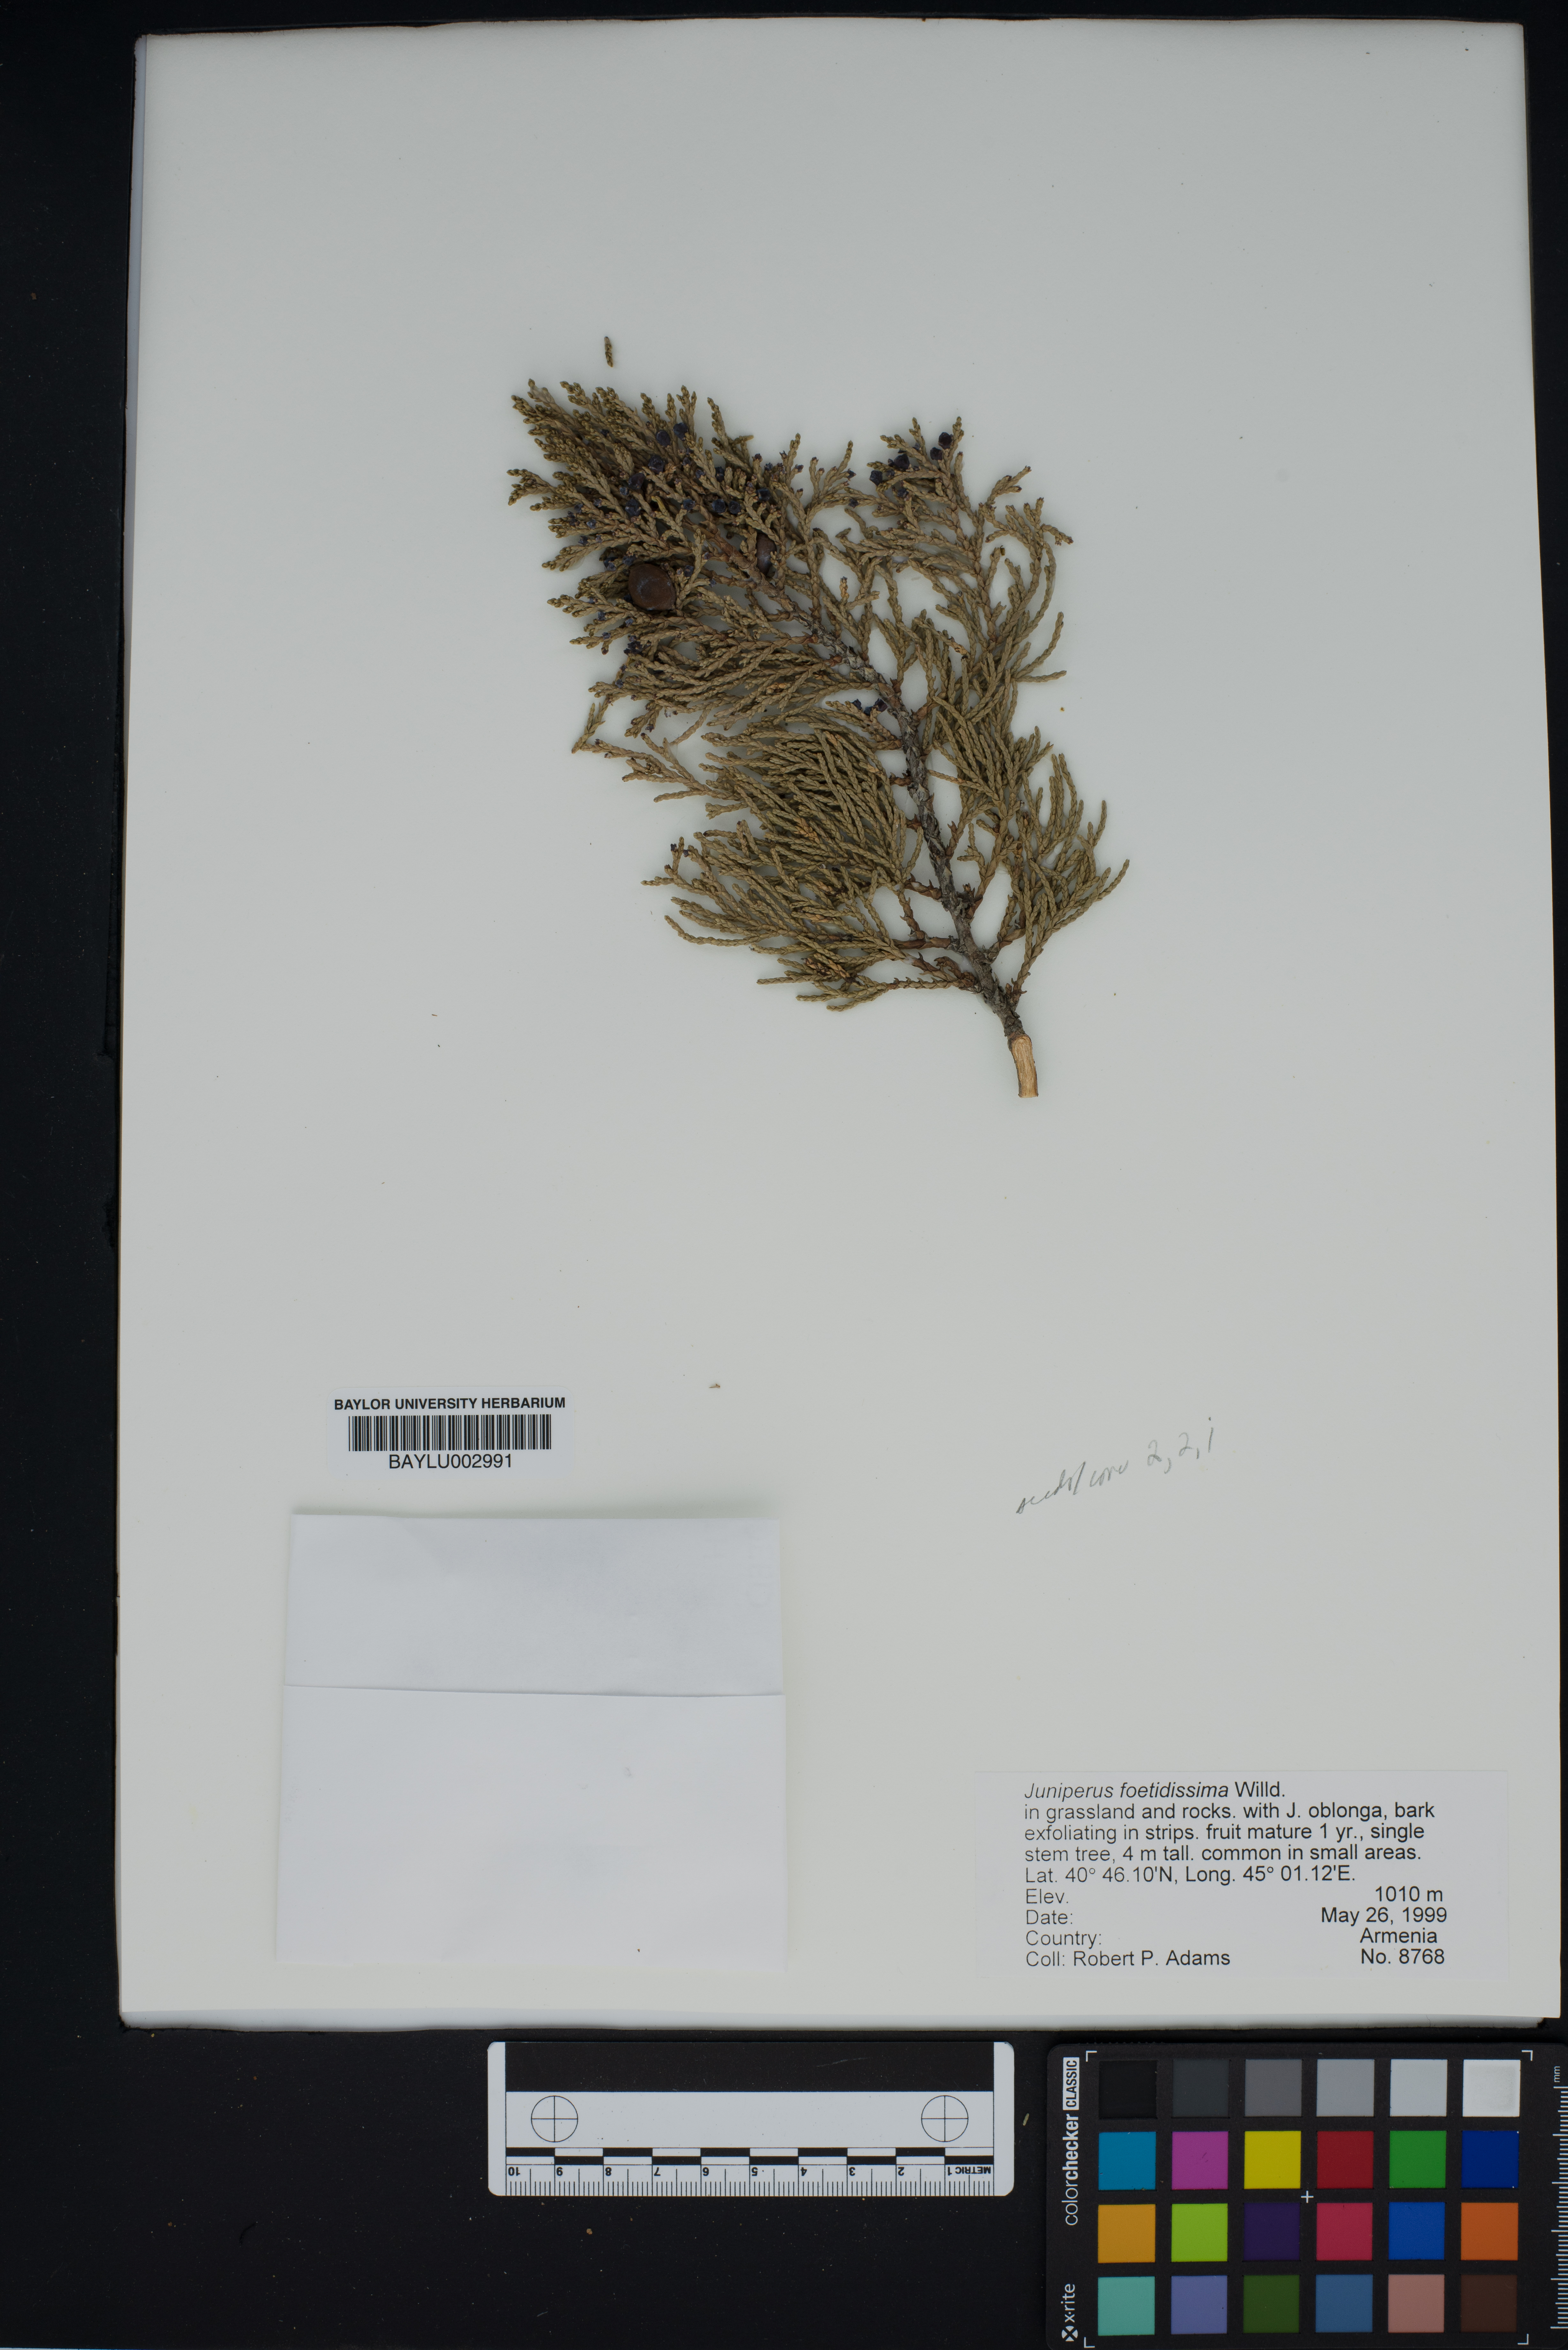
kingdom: Plantae
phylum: Tracheophyta
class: Pinopsida
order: Pinales
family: Cupressaceae
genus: Juniperus
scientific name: Juniperus foetidissima
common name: Stinking juniper
